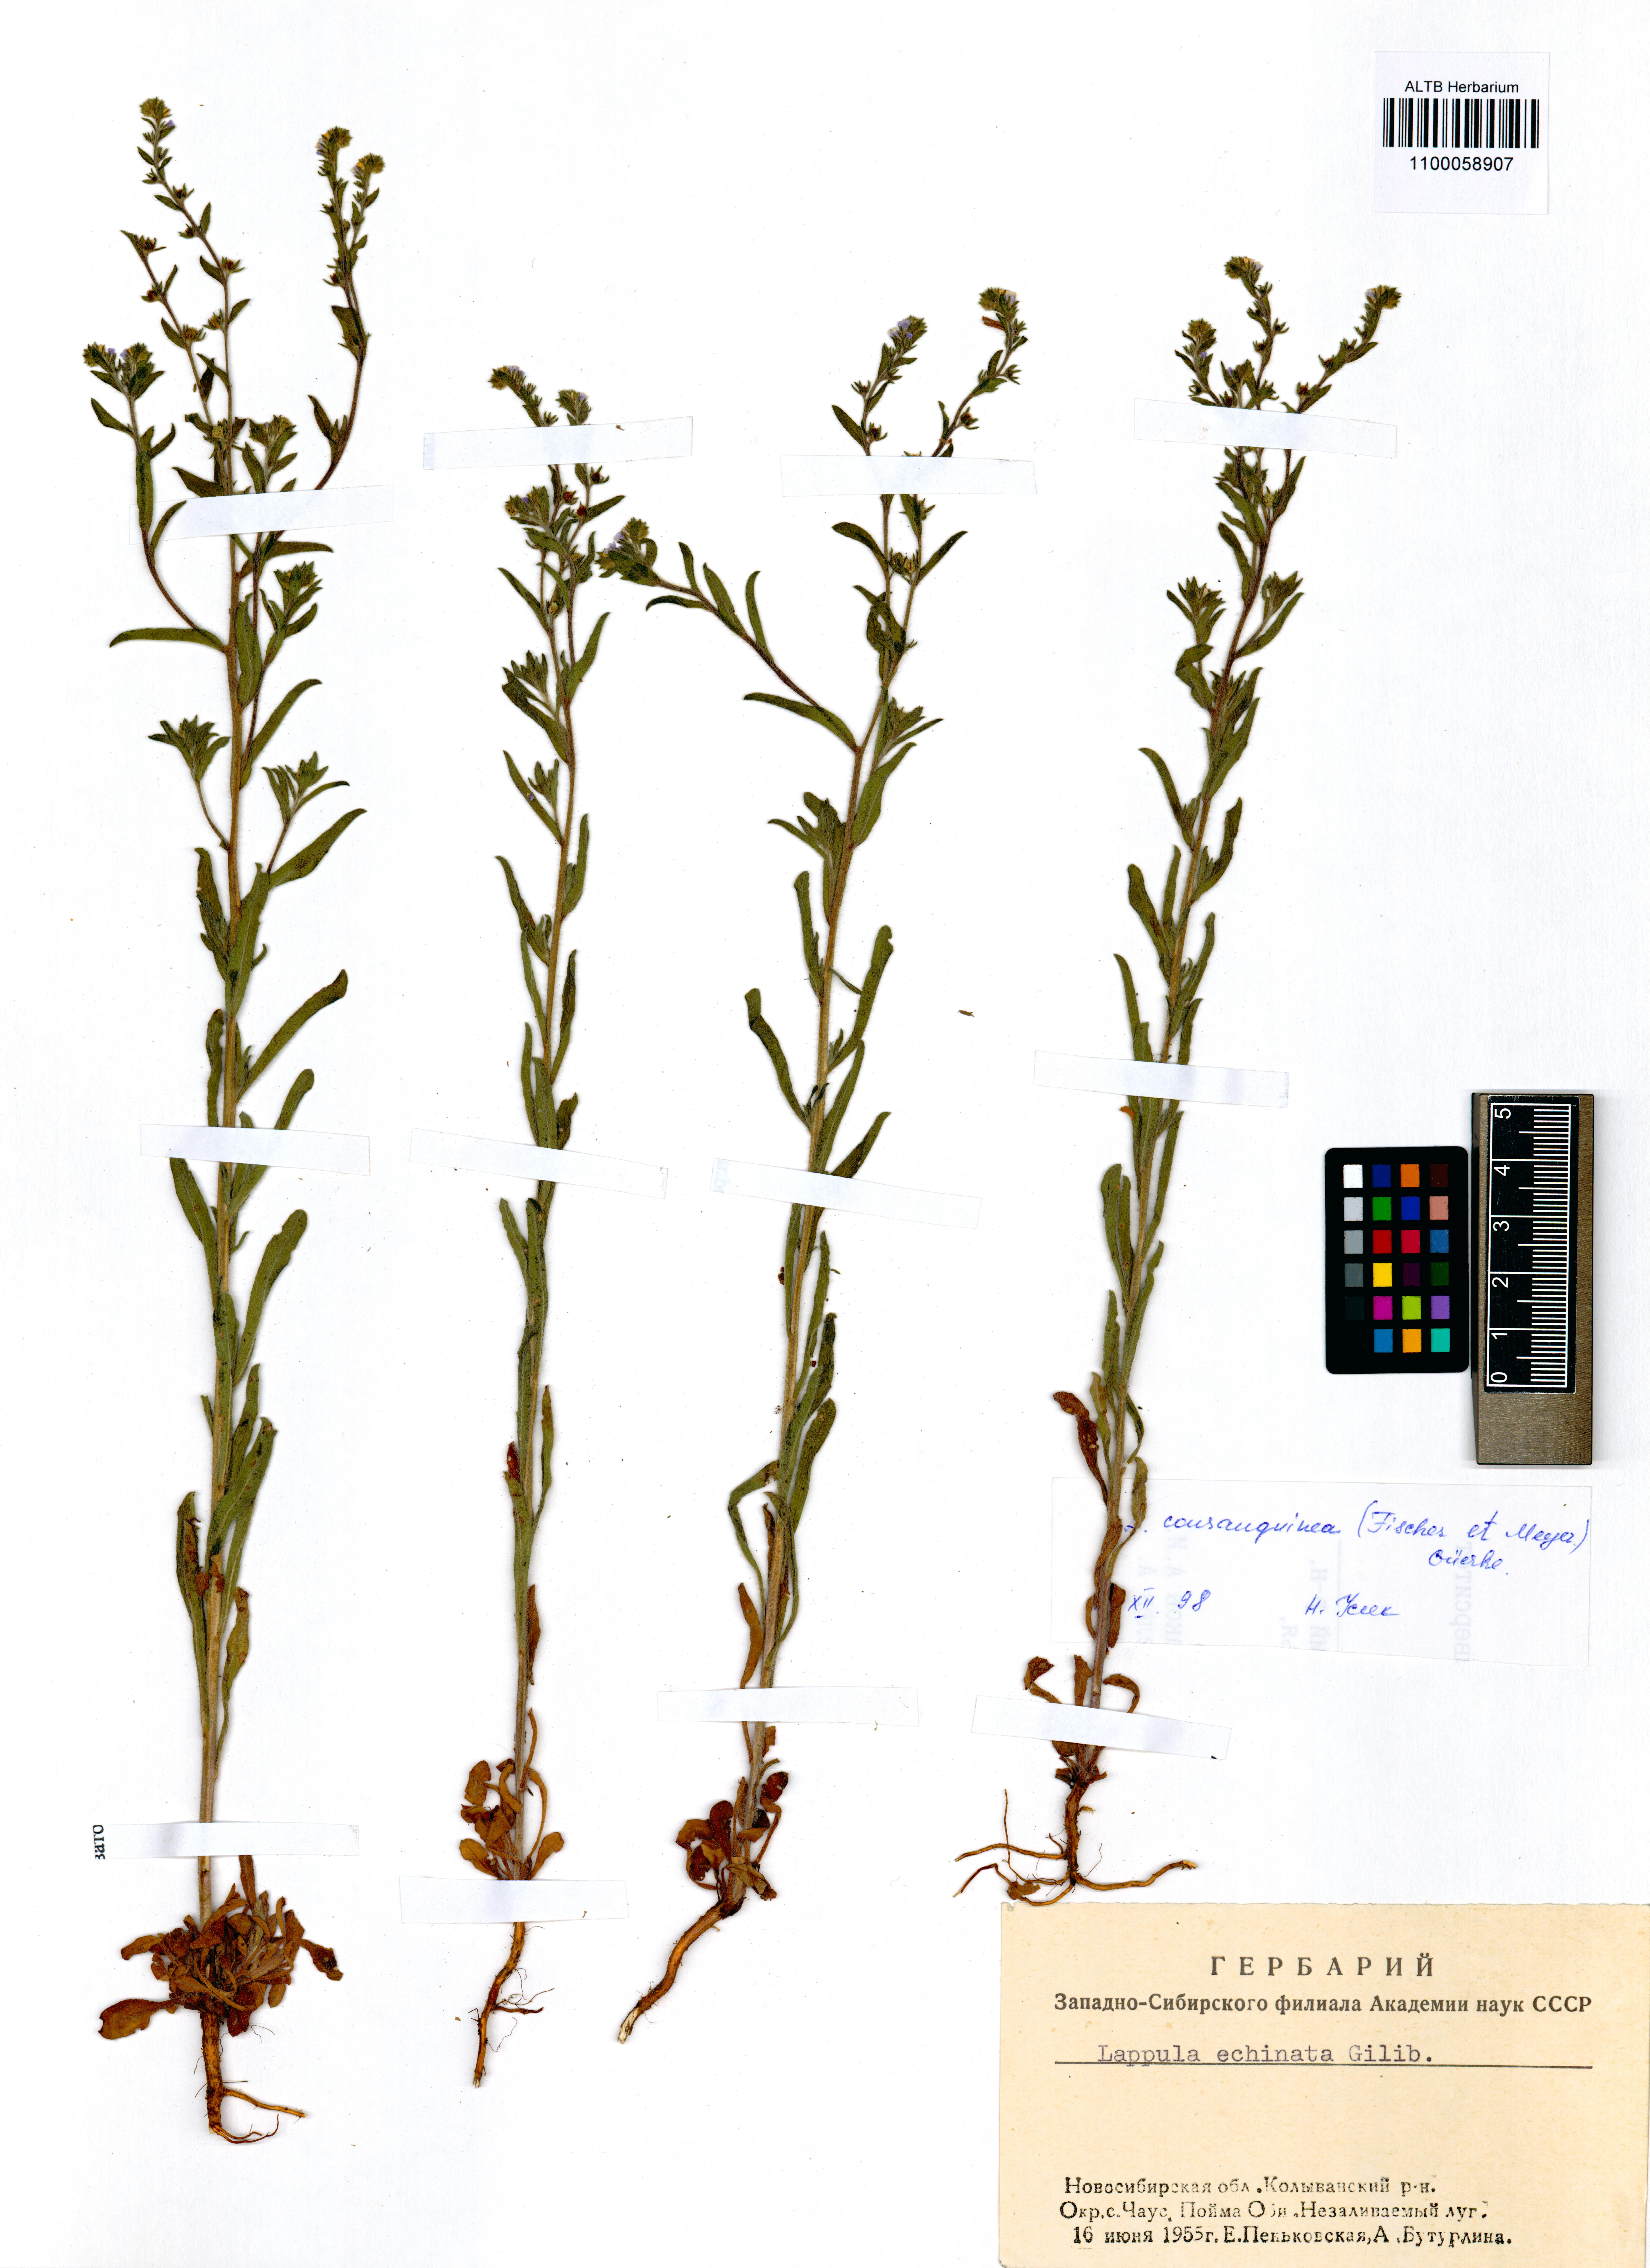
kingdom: Plantae
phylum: Tracheophyta
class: Magnoliopsida
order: Boraginales
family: Boraginaceae
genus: Lappula
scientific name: Lappula squarrosa
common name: European stickseed
